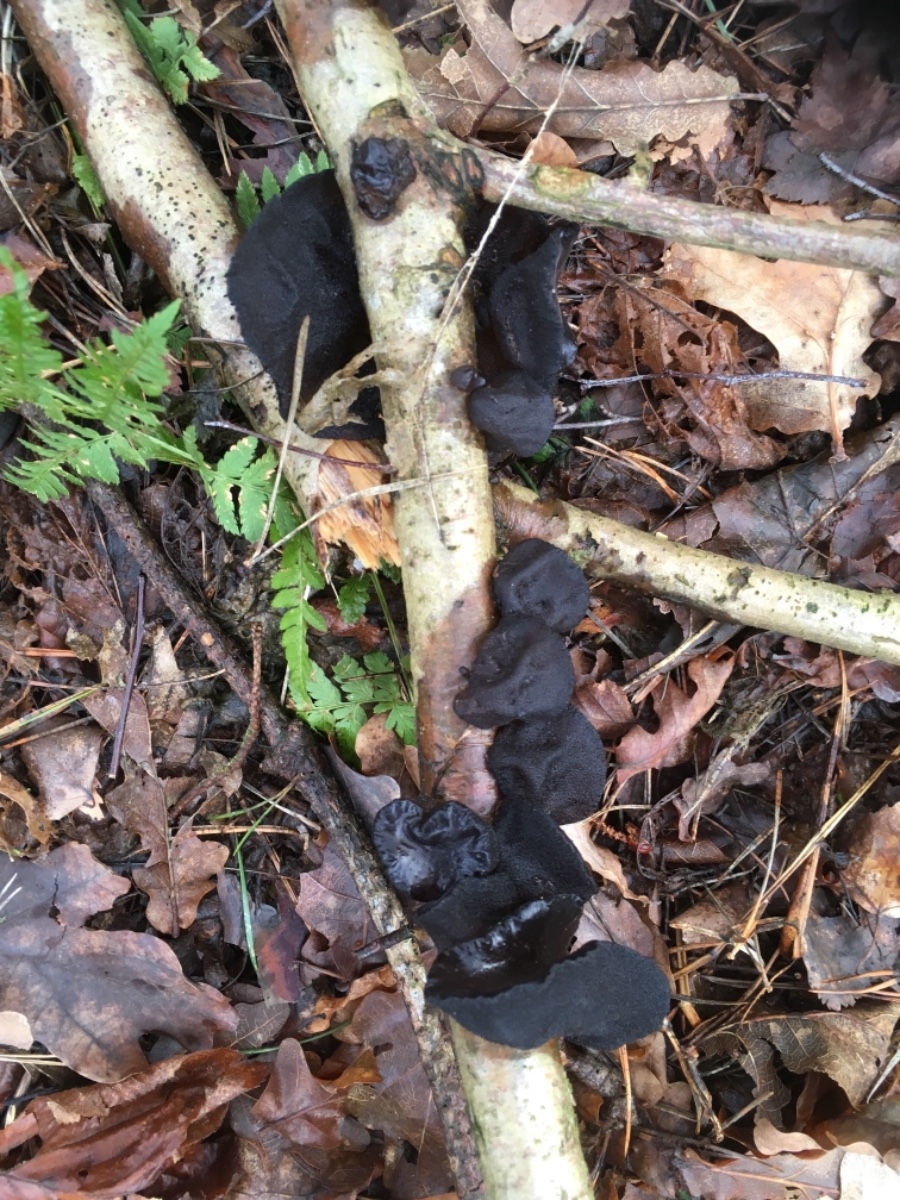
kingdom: Fungi
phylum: Basidiomycota
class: Agaricomycetes
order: Auriculariales
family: Auriculariaceae
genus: Exidia
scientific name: Exidia glandulosa
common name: ege-bævretop
